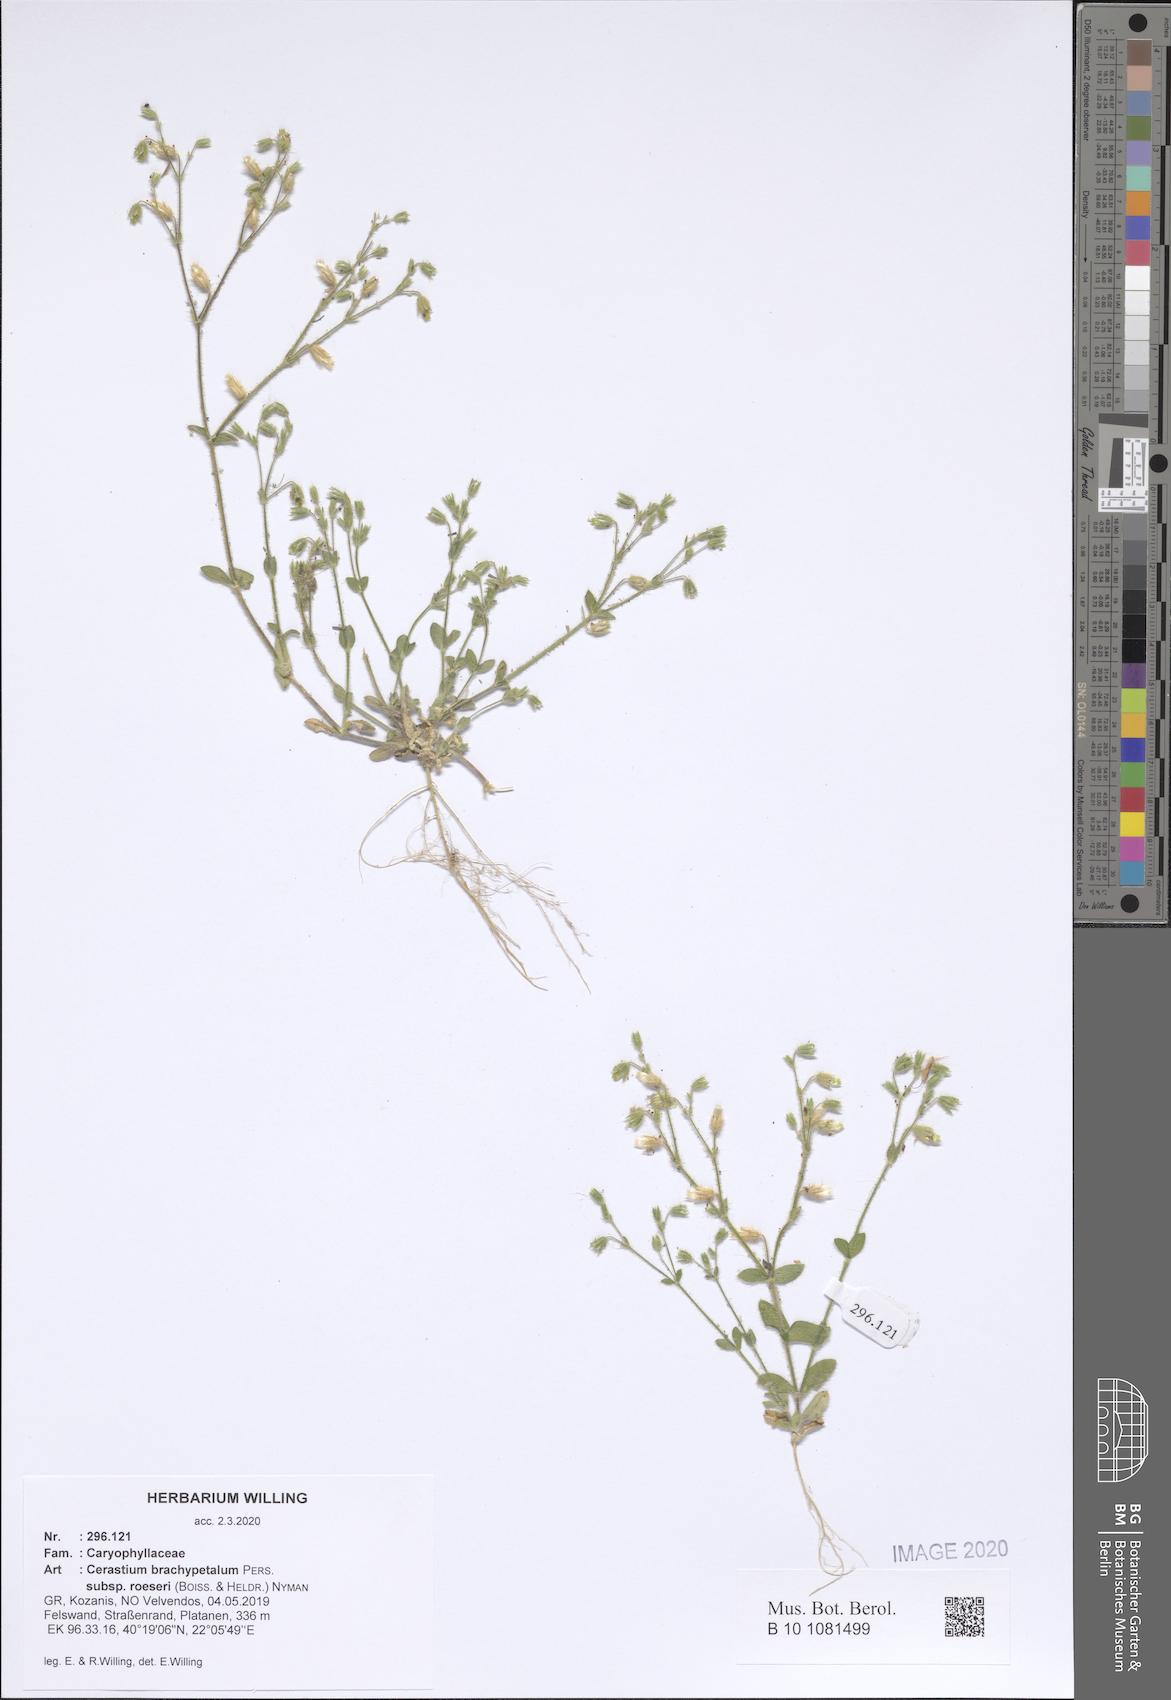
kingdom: Plantae
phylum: Tracheophyta
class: Magnoliopsida
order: Caryophyllales
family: Caryophyllaceae
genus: Cerastium
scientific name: Cerastium brachypetalum
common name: Grey mouse-ear
